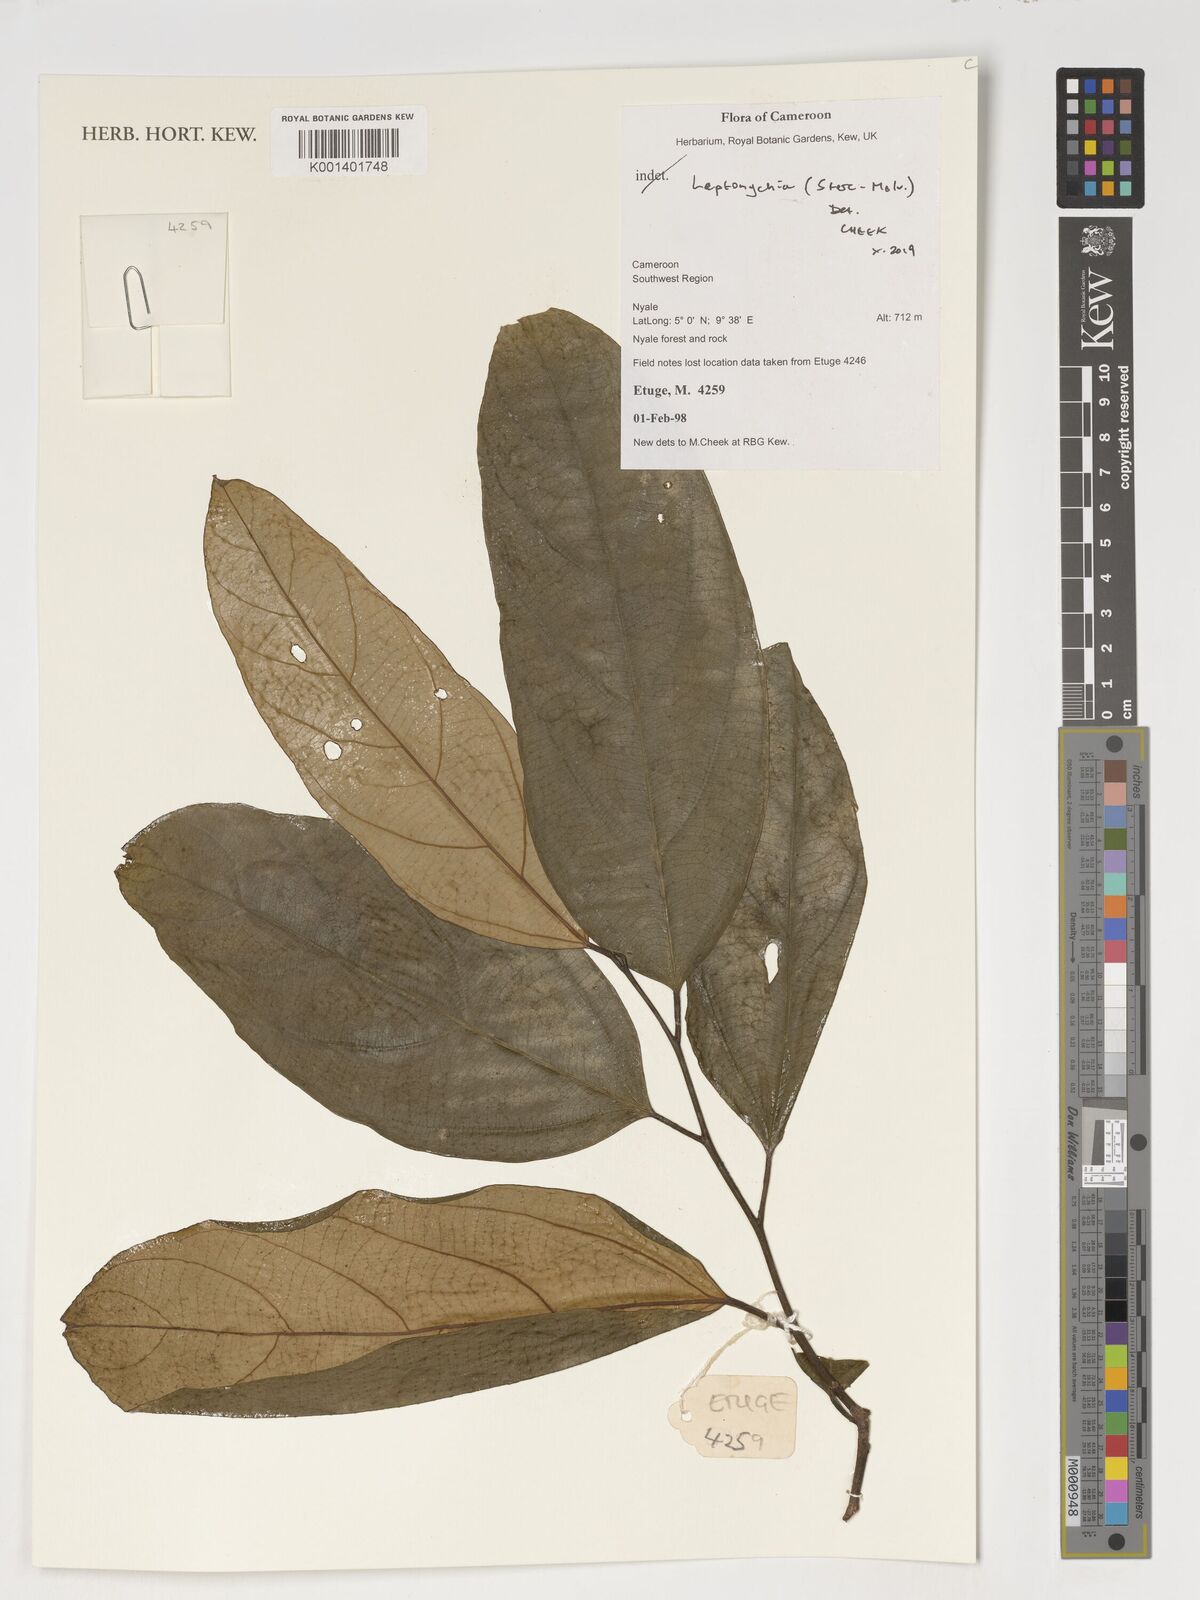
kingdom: Plantae
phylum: Tracheophyta
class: Magnoliopsida
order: Malvales
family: Malvaceae
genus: Leptonychia
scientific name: Leptonychia
